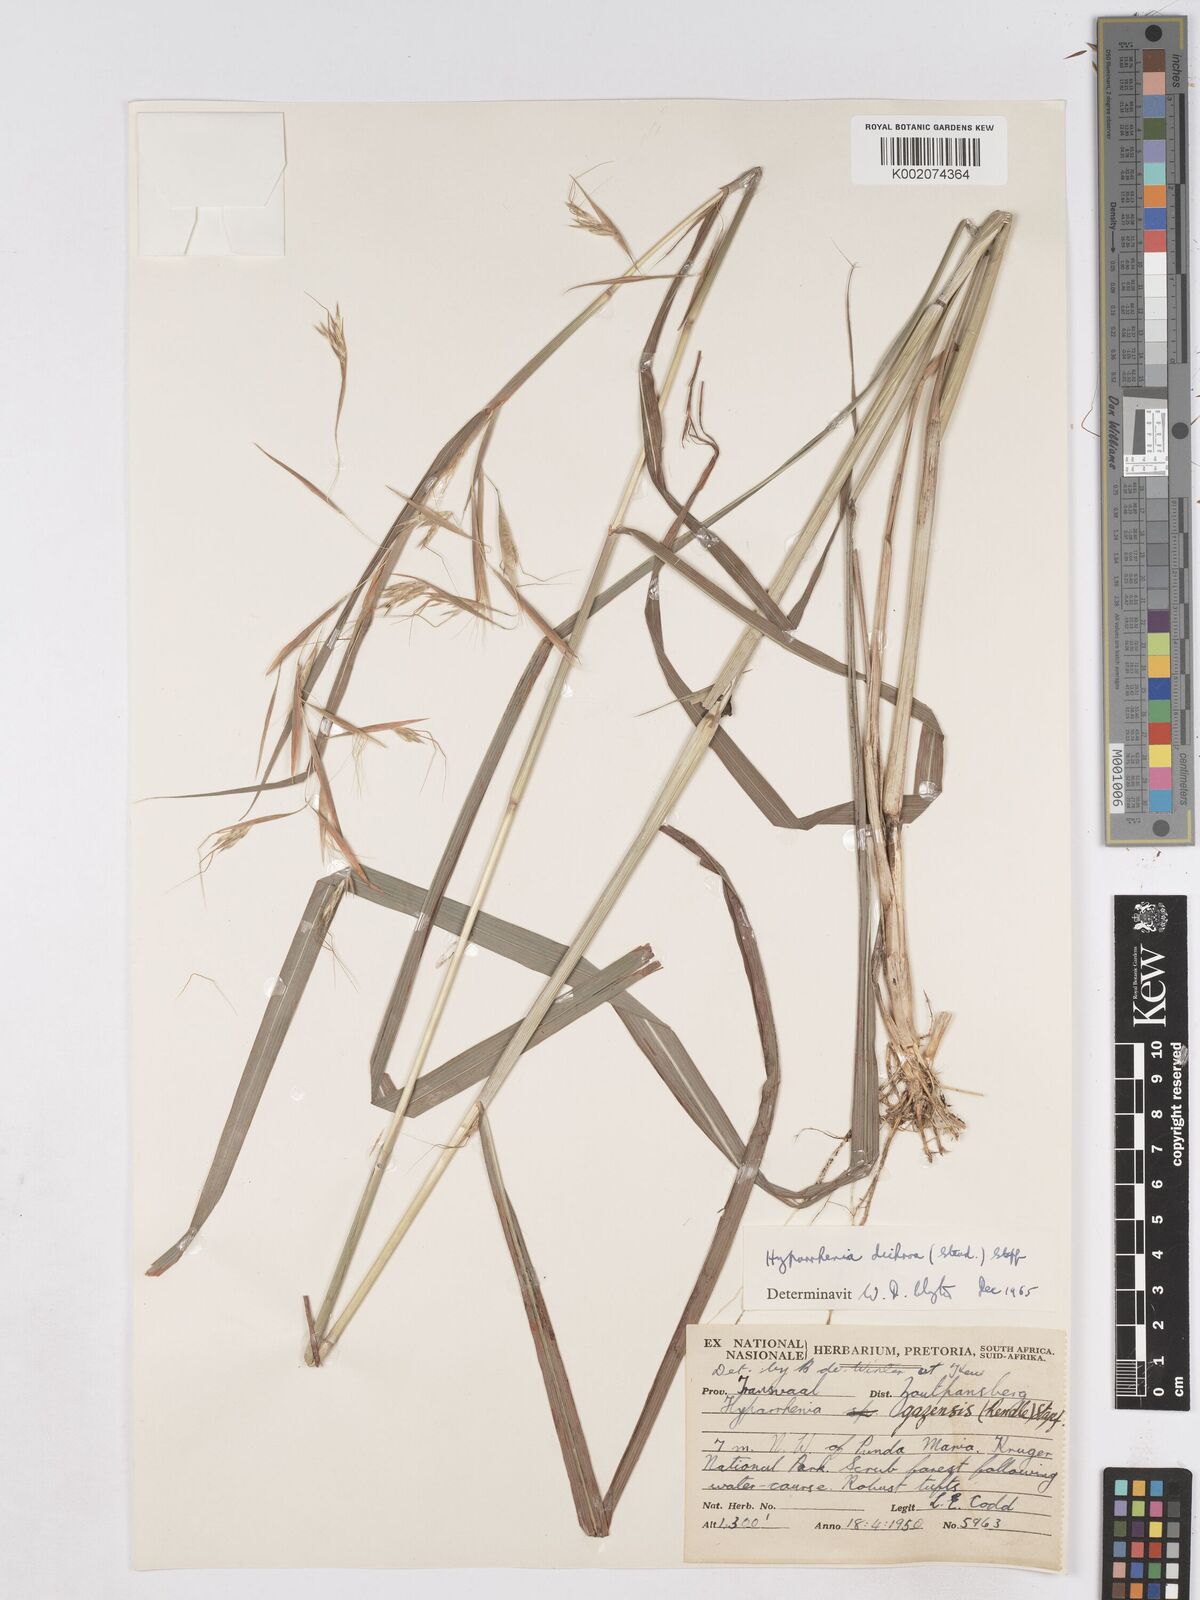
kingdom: Plantae
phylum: Tracheophyta
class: Liliopsida
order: Poales
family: Poaceae
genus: Hyparrhenia
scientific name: Hyparrhenia dichroa
